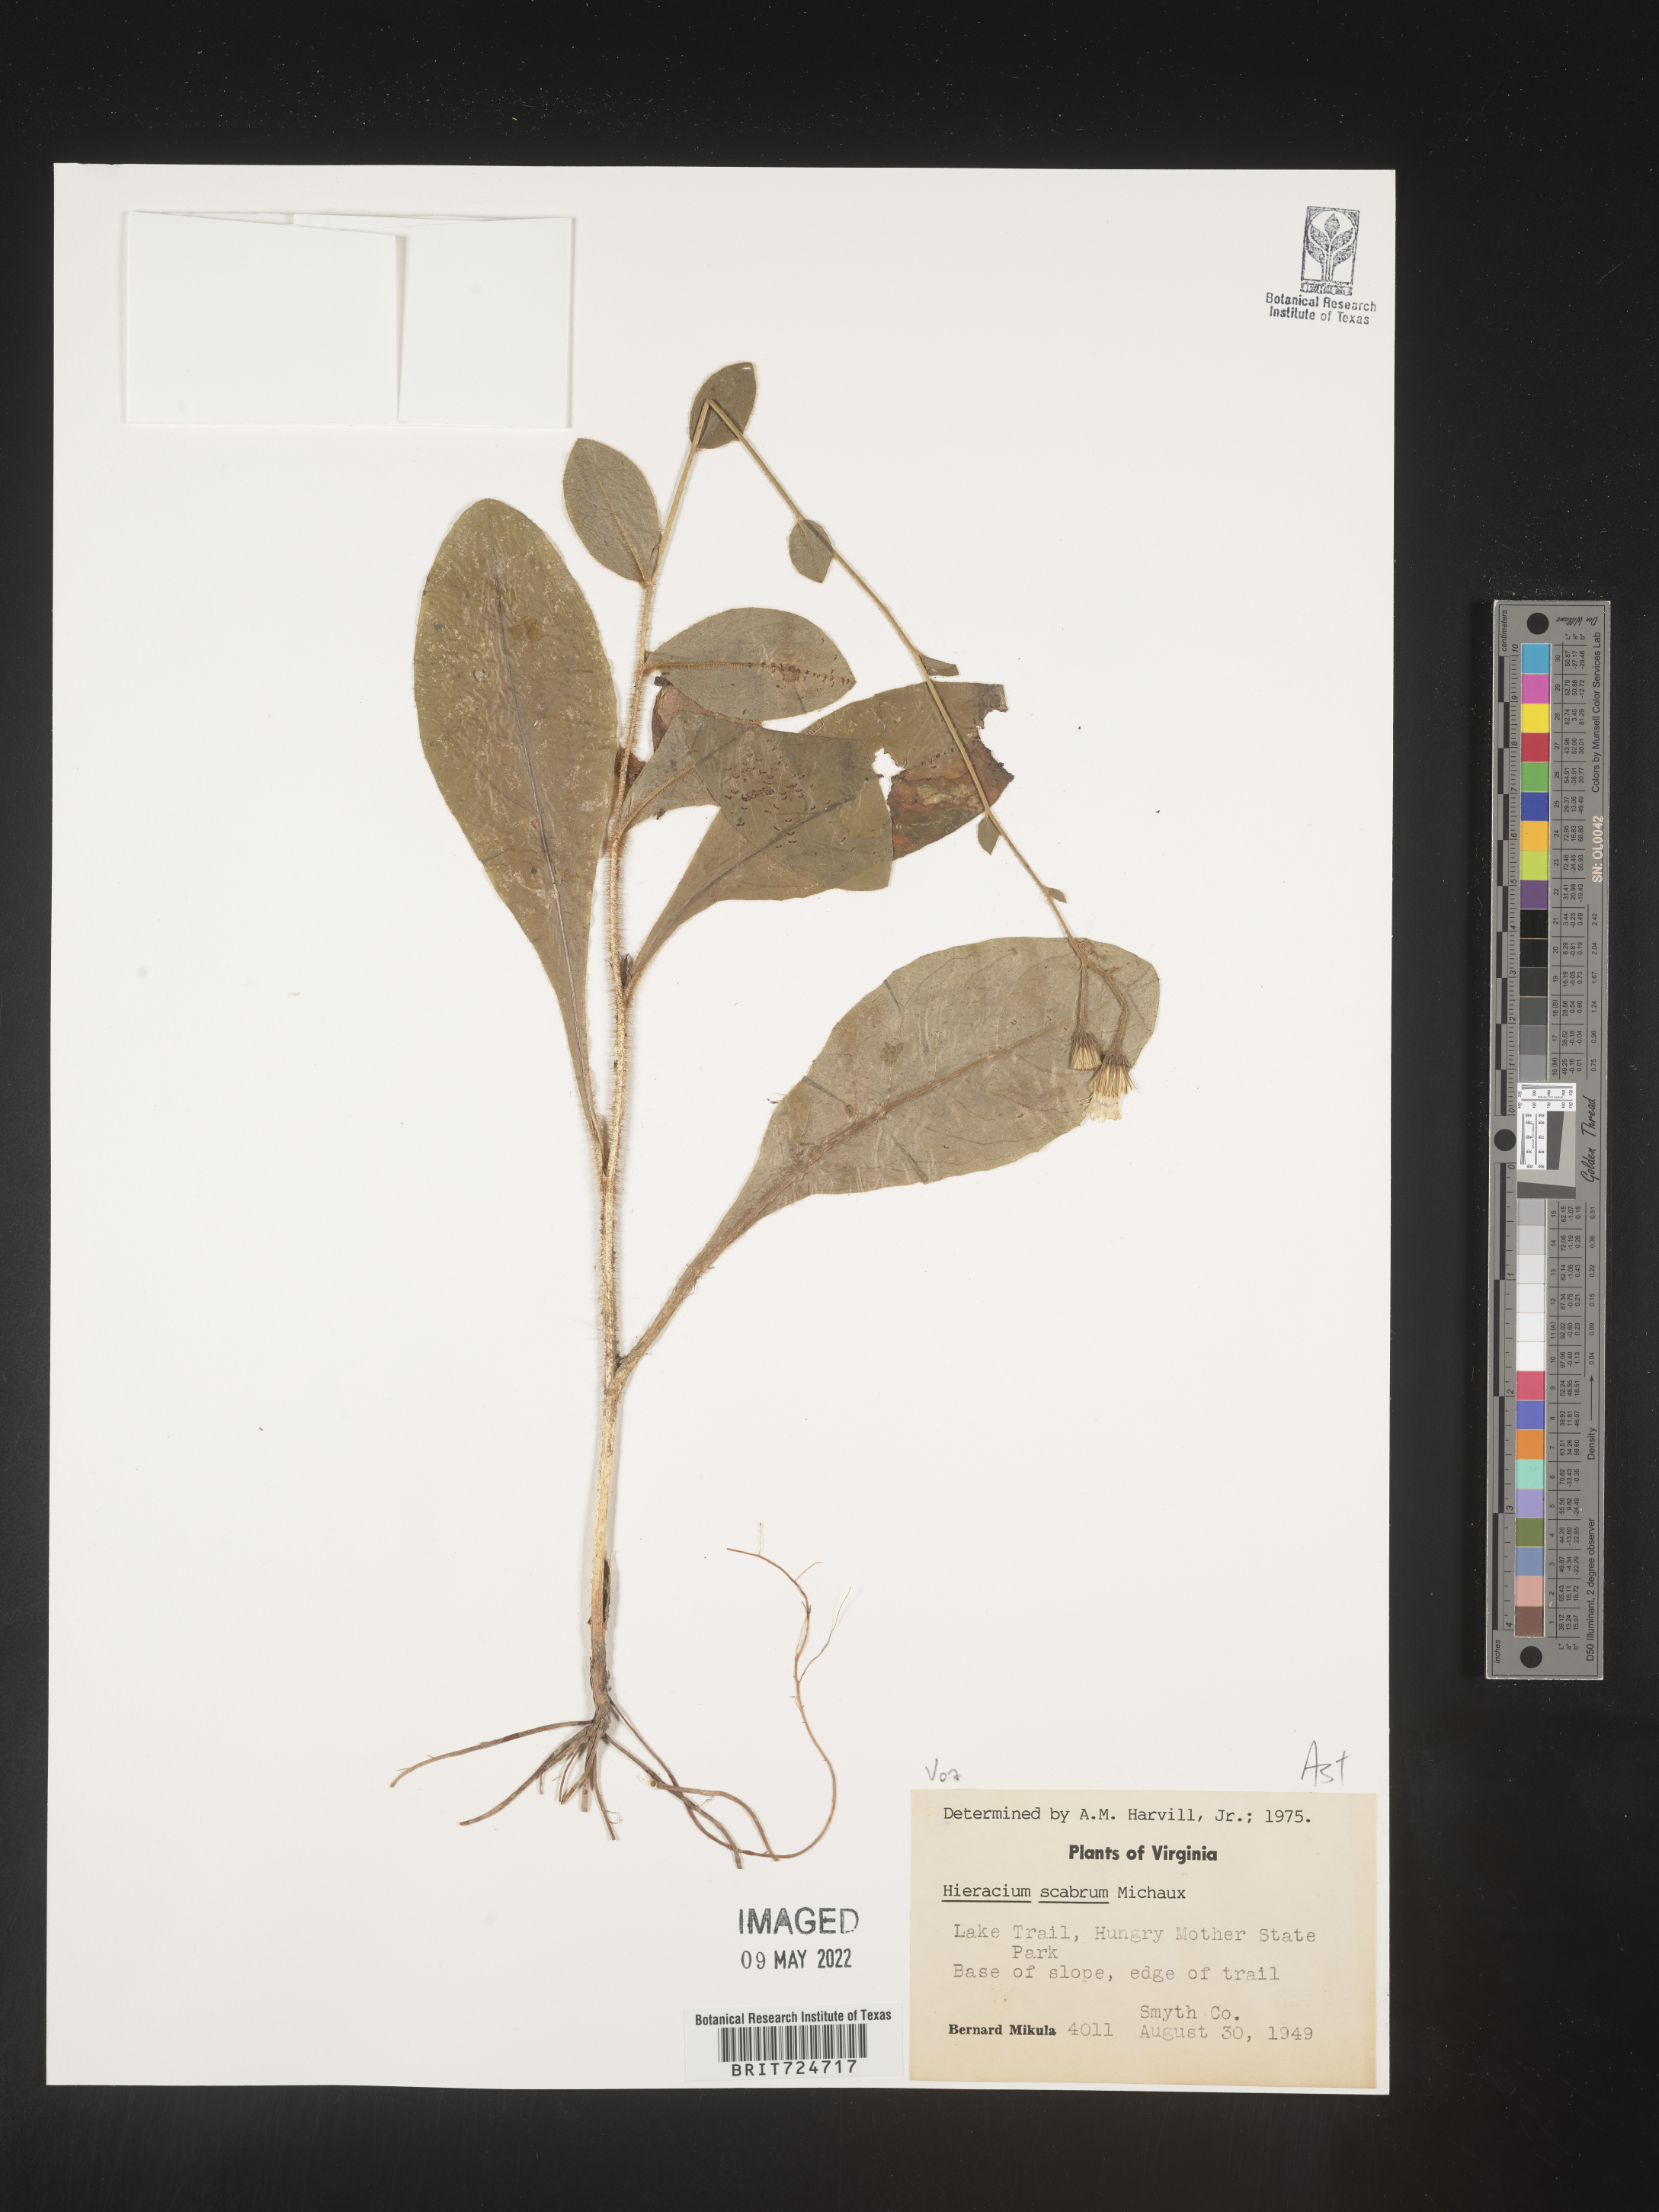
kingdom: Plantae
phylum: Tracheophyta
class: Magnoliopsida
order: Asterales
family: Asteraceae
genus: Hieracium
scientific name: Hieracium scabrum
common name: Rough hawkweed
